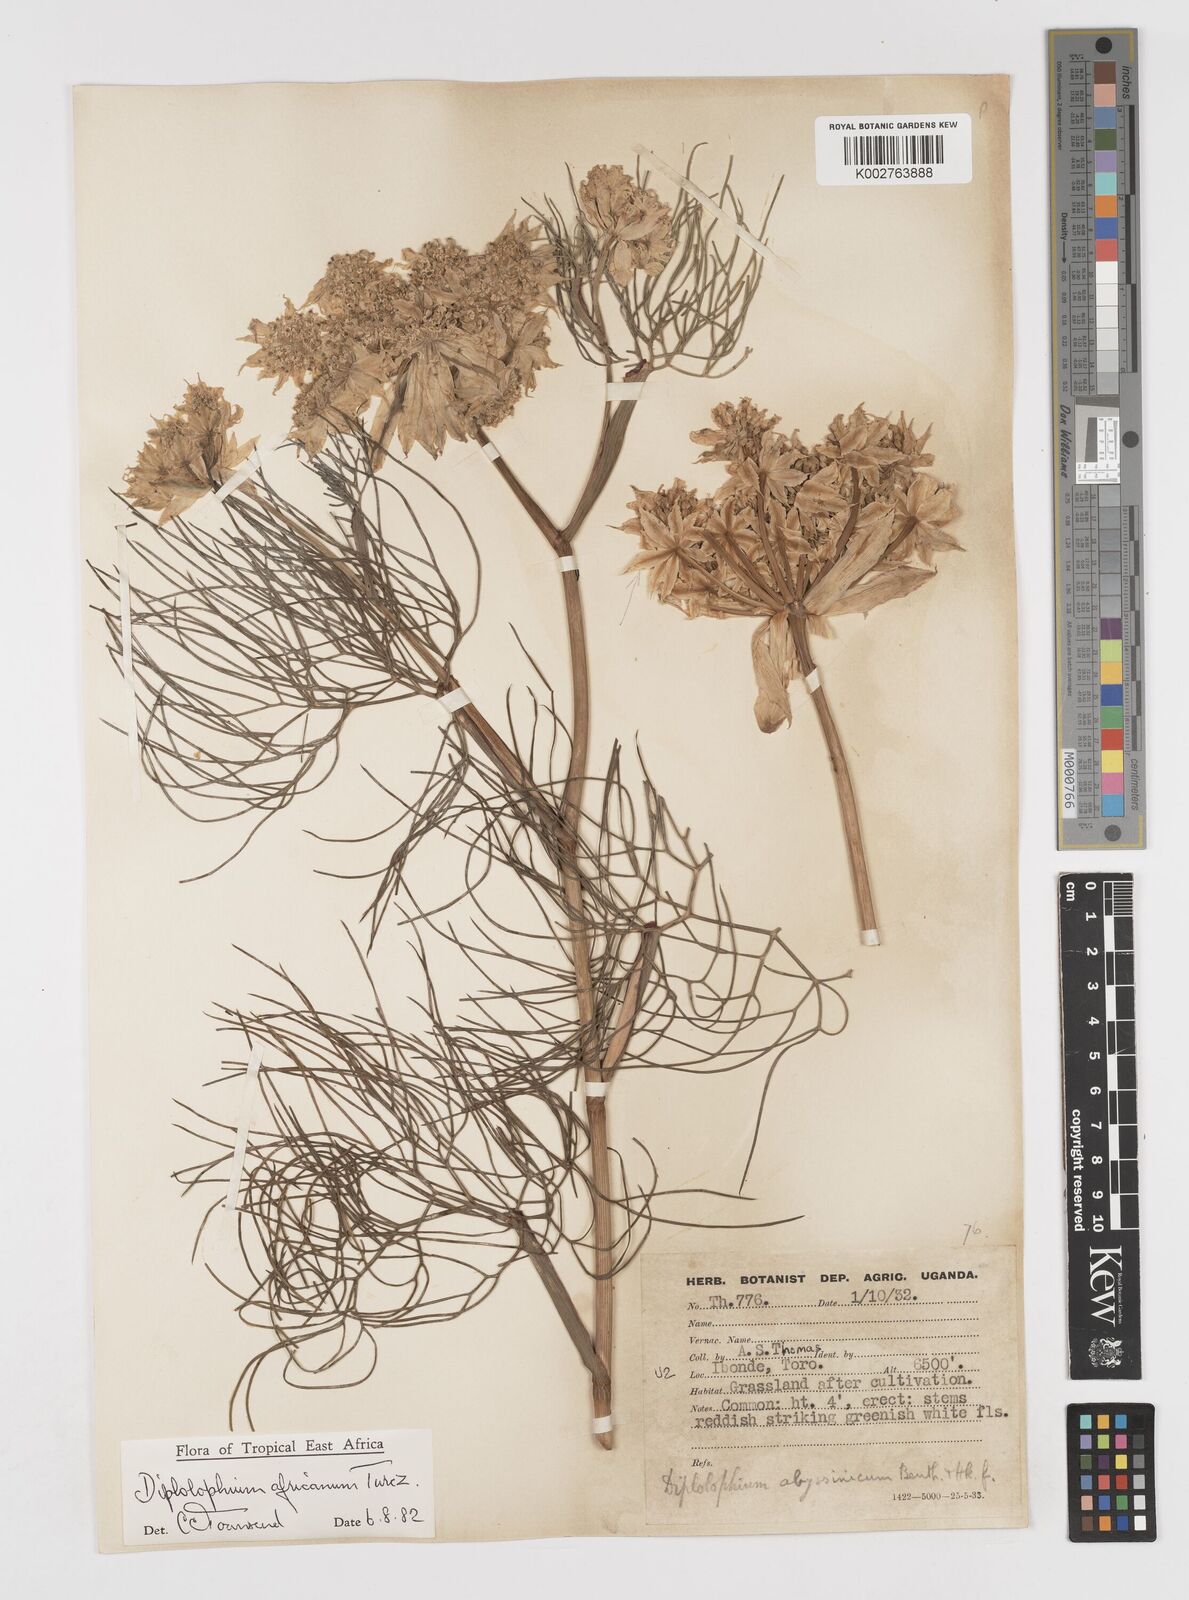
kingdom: Plantae
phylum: Tracheophyta
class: Magnoliopsida
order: Apiales
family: Apiaceae
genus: Diplolophium
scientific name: Diplolophium africanum
